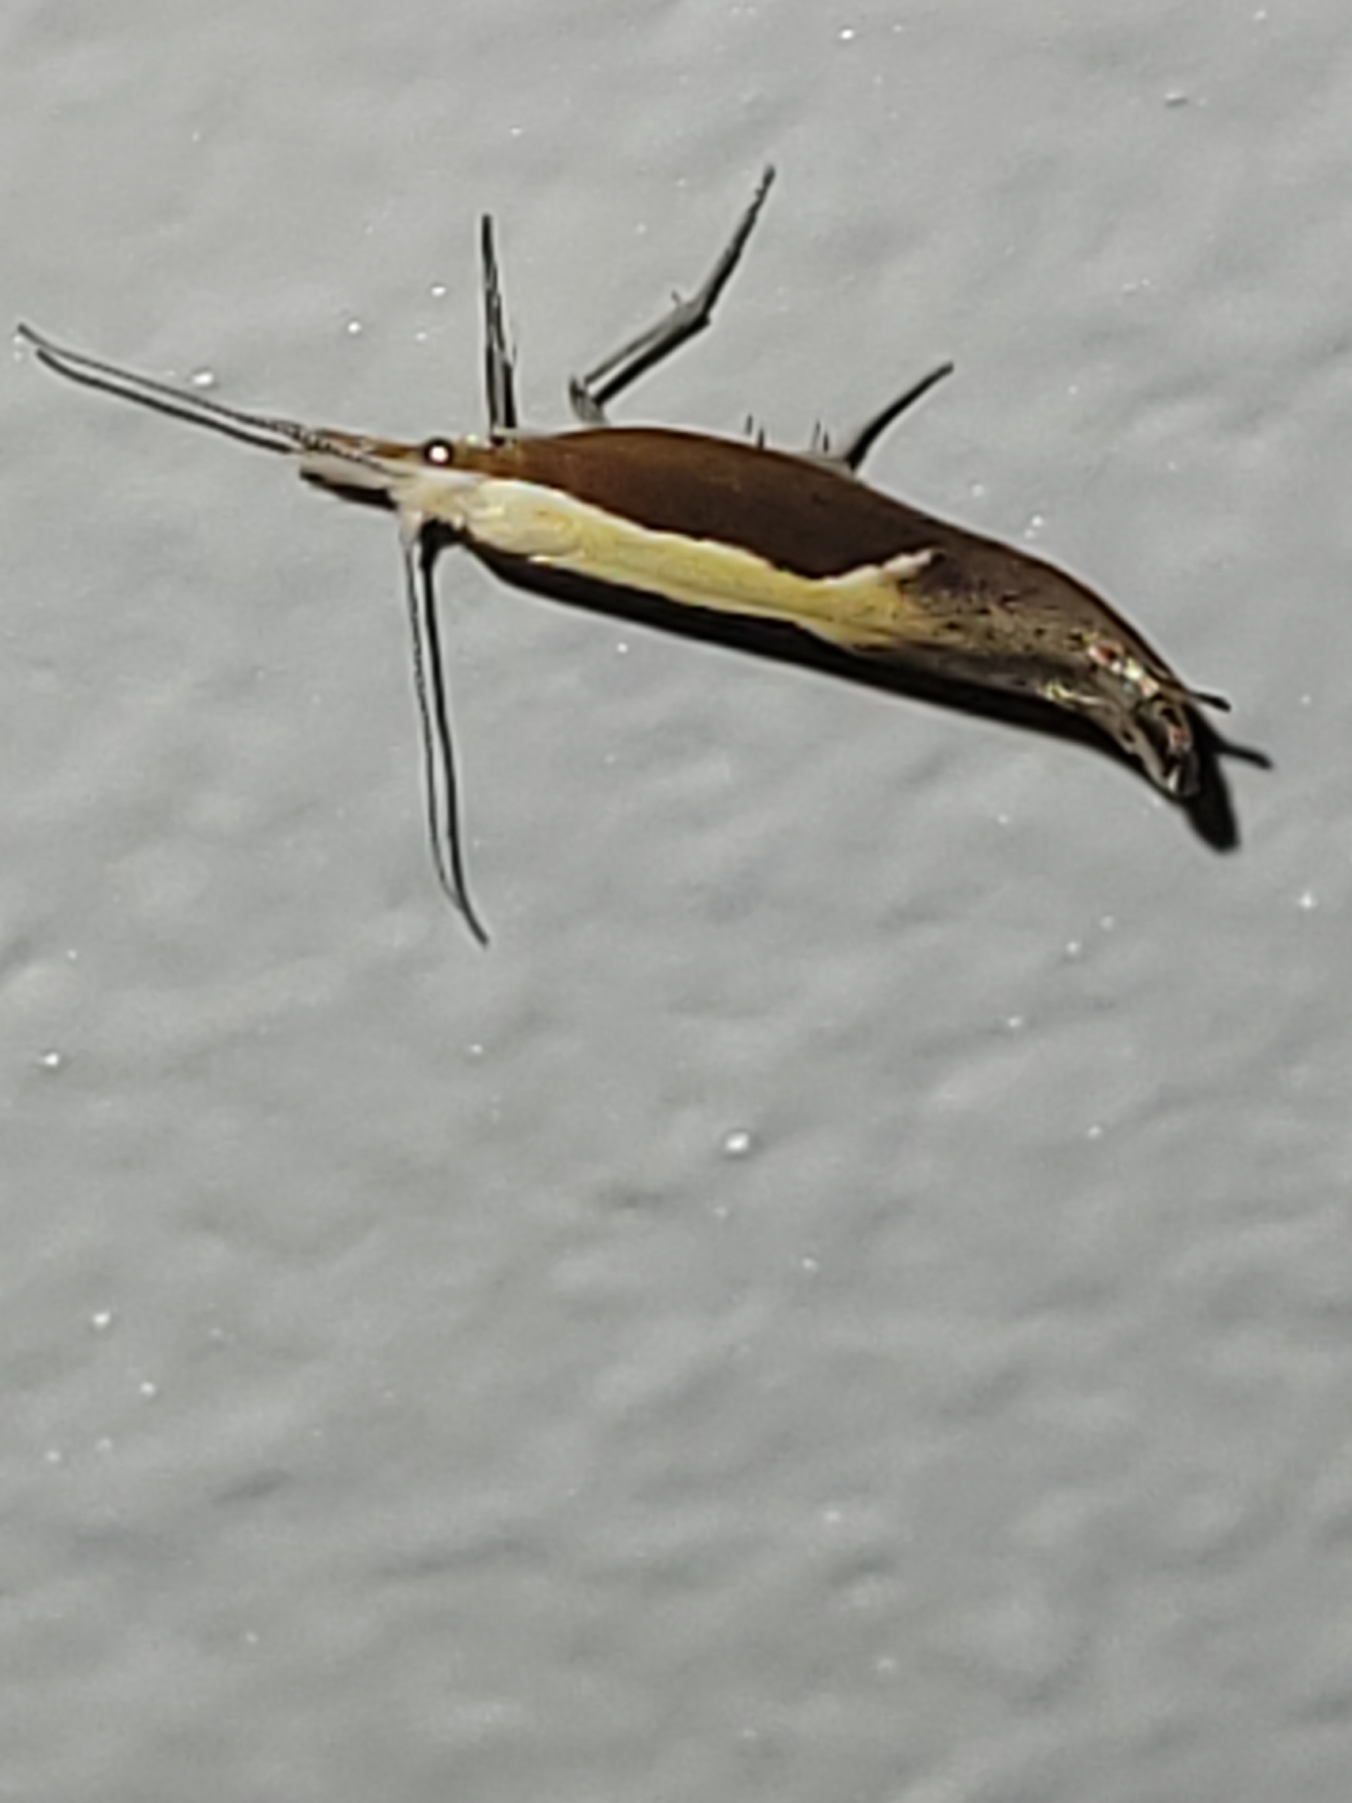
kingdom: Animalia
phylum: Arthropoda
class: Insecta
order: Lepidoptera
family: Ypsolophidae
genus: Ypsolopha
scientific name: Ypsolopha dentella
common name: Snudegedebladmøl
